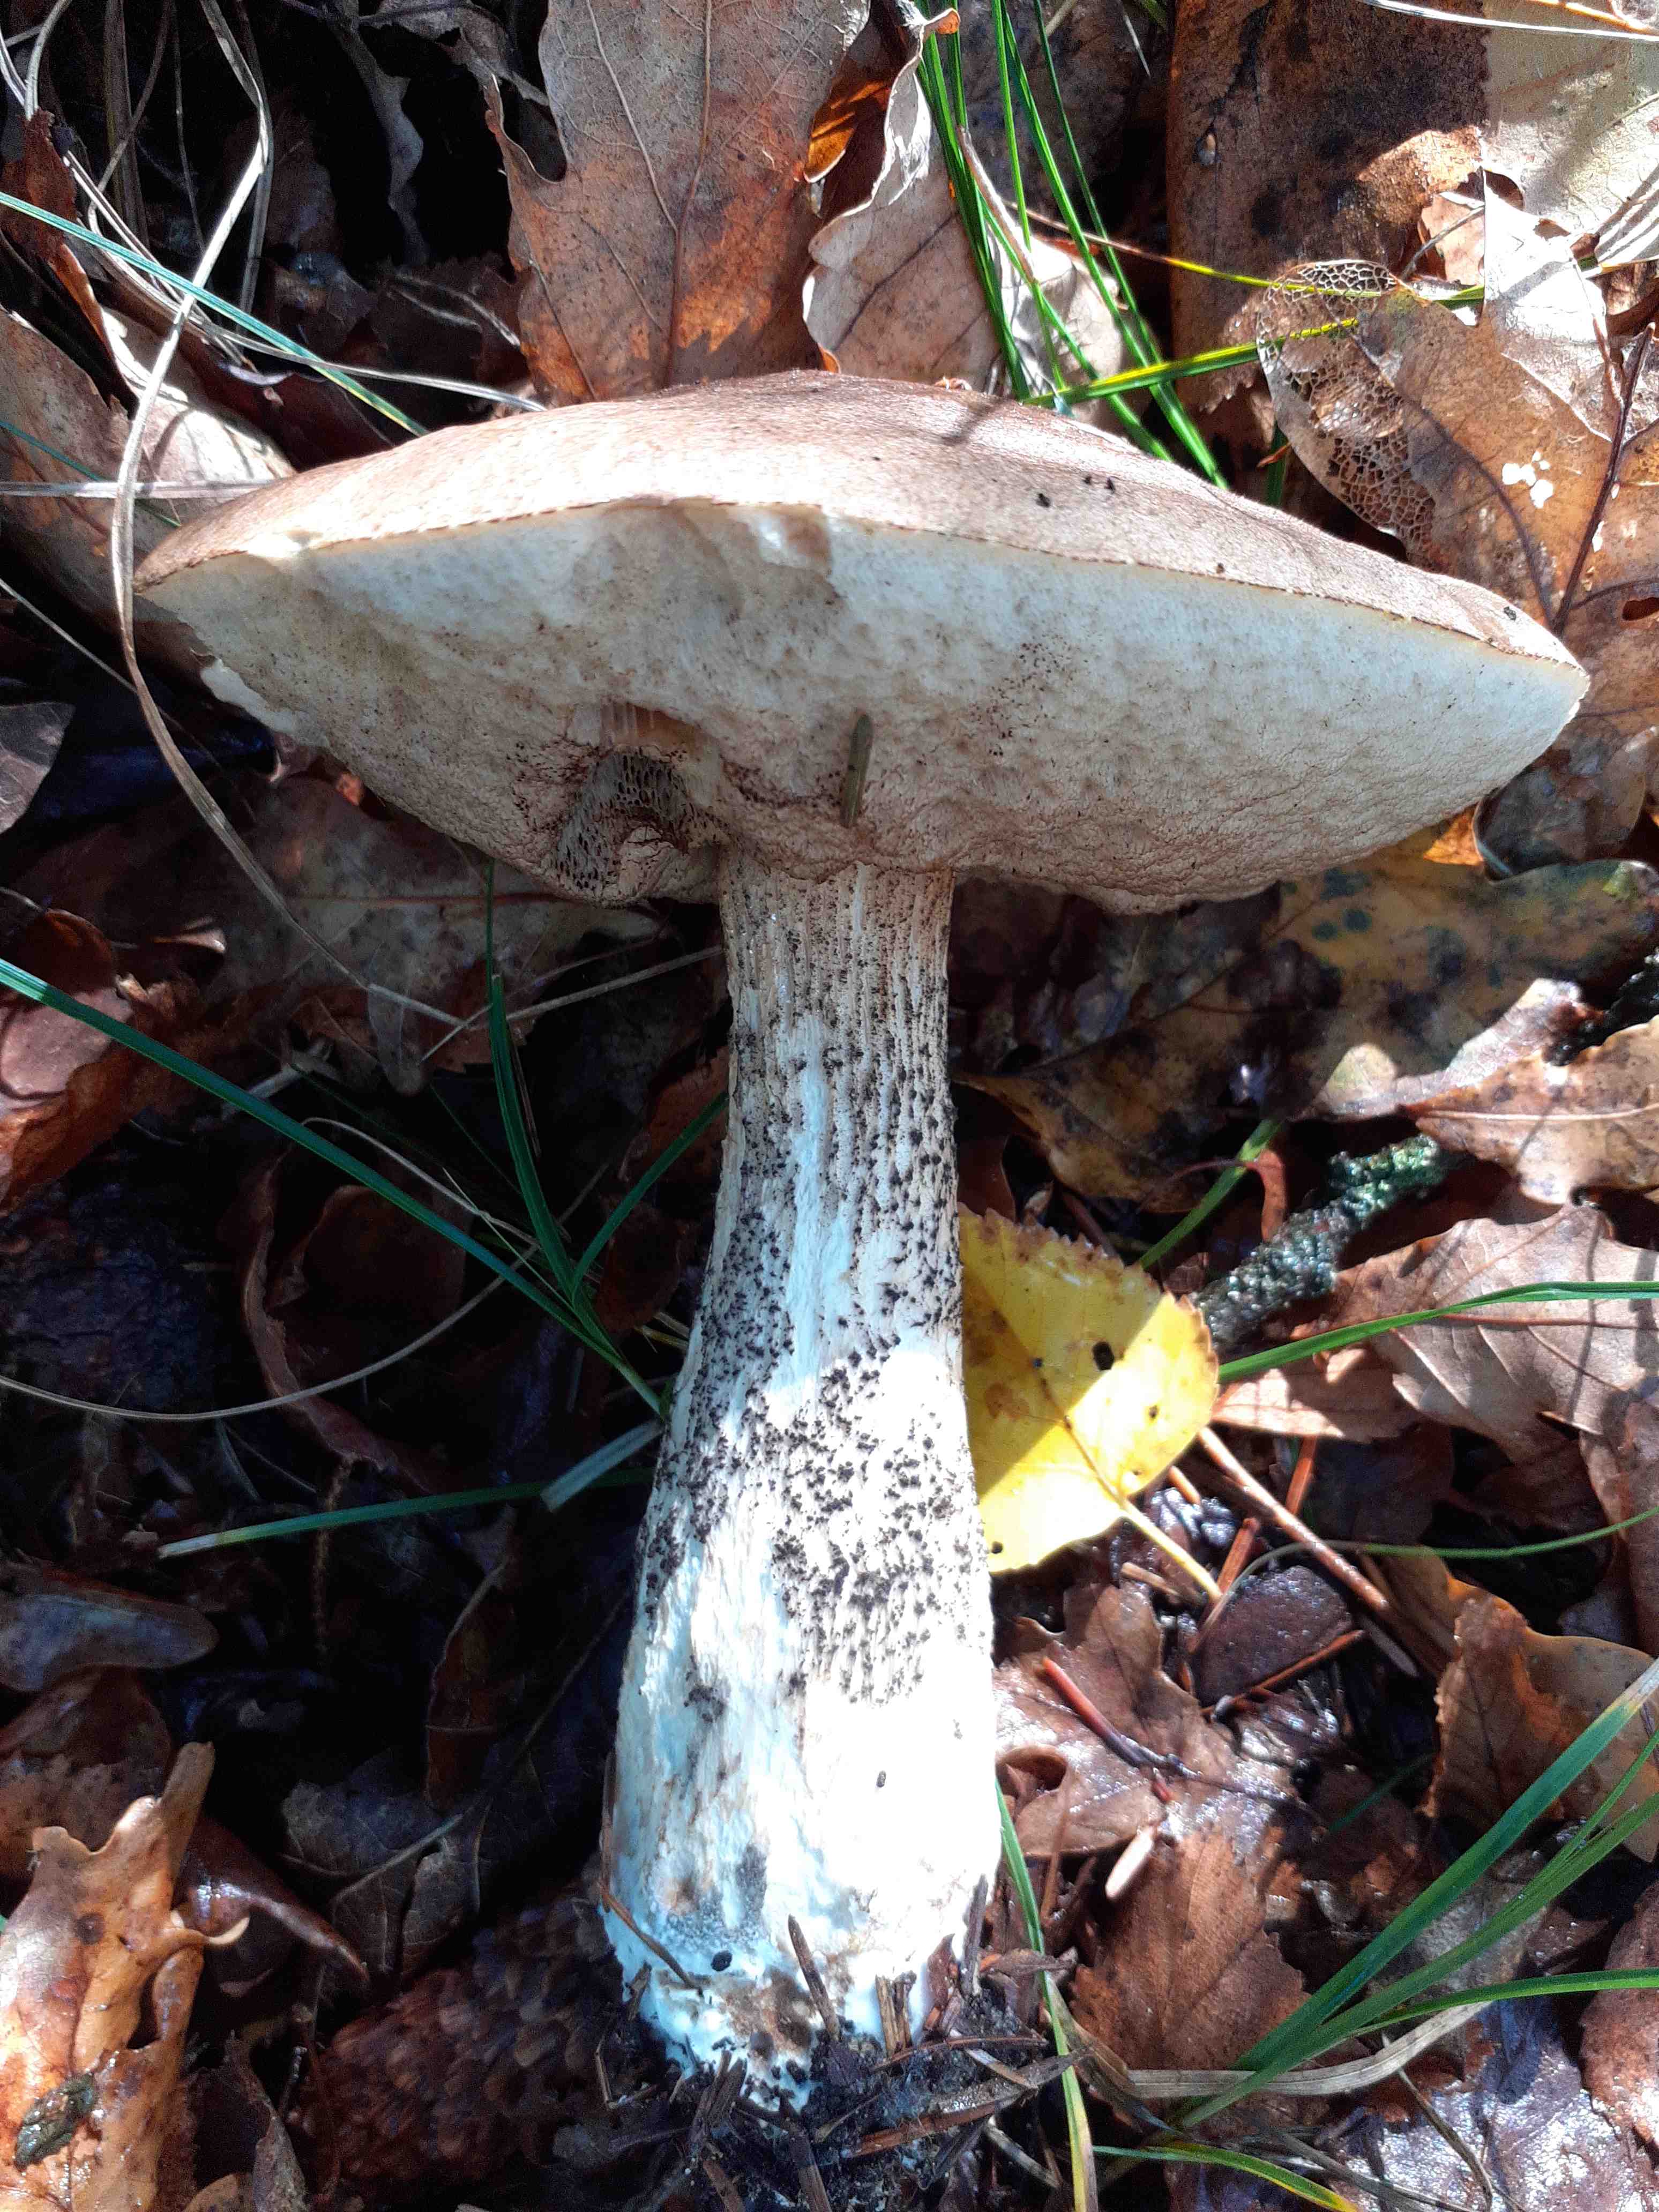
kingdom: Fungi
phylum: Basidiomycota
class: Agaricomycetes
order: Boletales
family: Boletaceae
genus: Leccinum
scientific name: Leccinum
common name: skælrørhat
